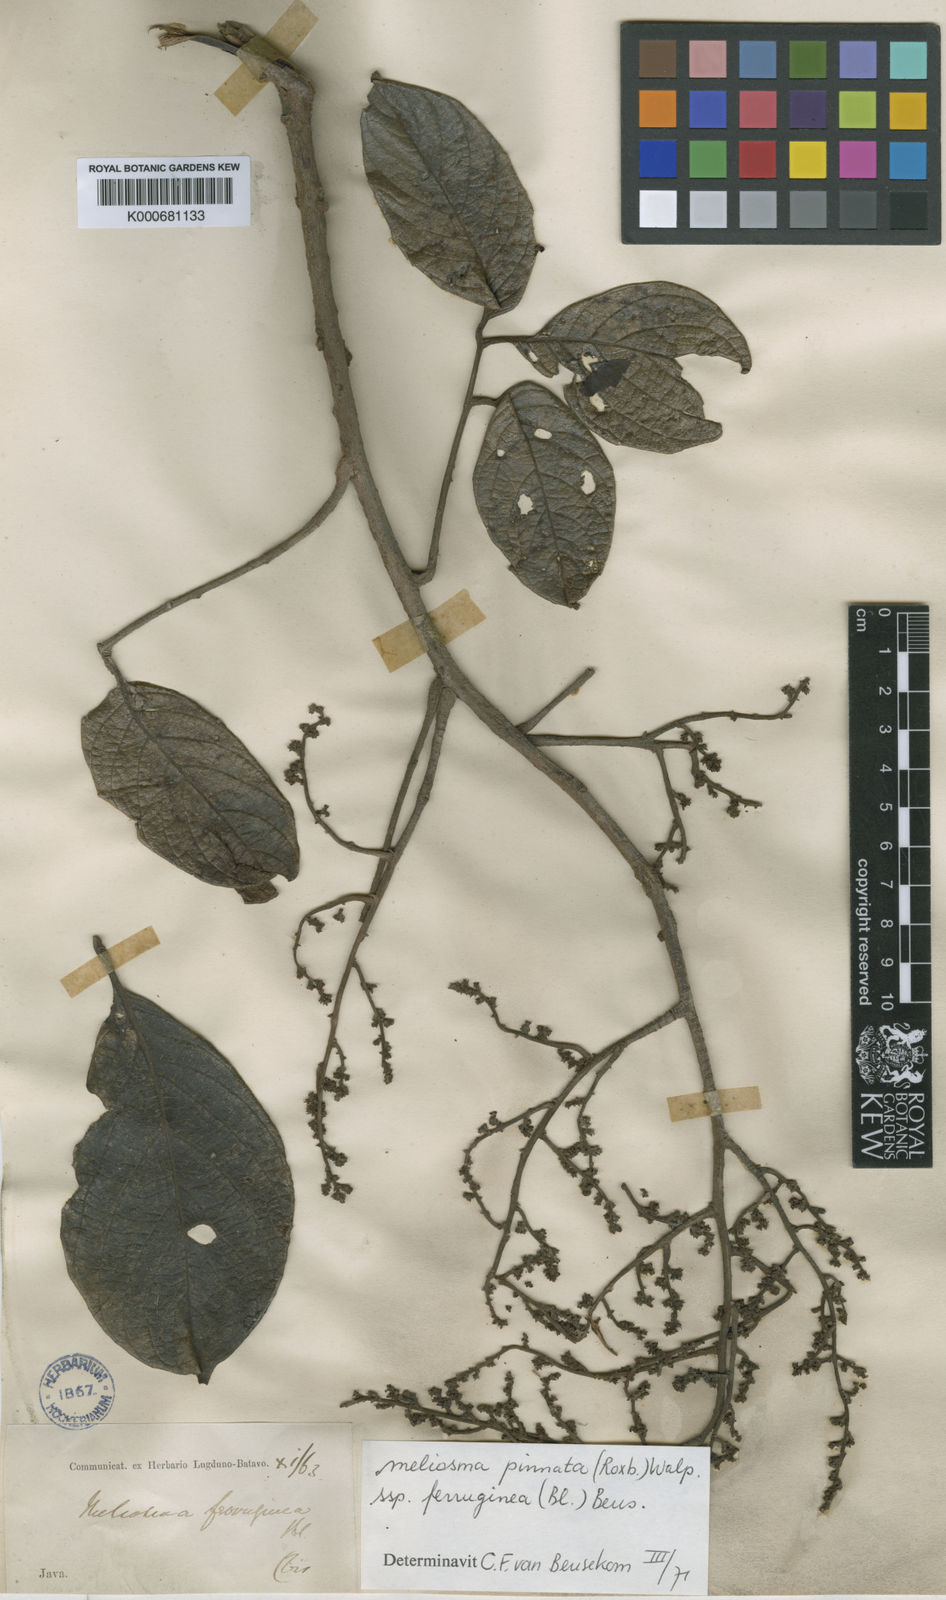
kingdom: Plantae
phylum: Tracheophyta
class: Magnoliopsida
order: Proteales
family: Sabiaceae
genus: Meliosma
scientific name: Meliosma pinnata
